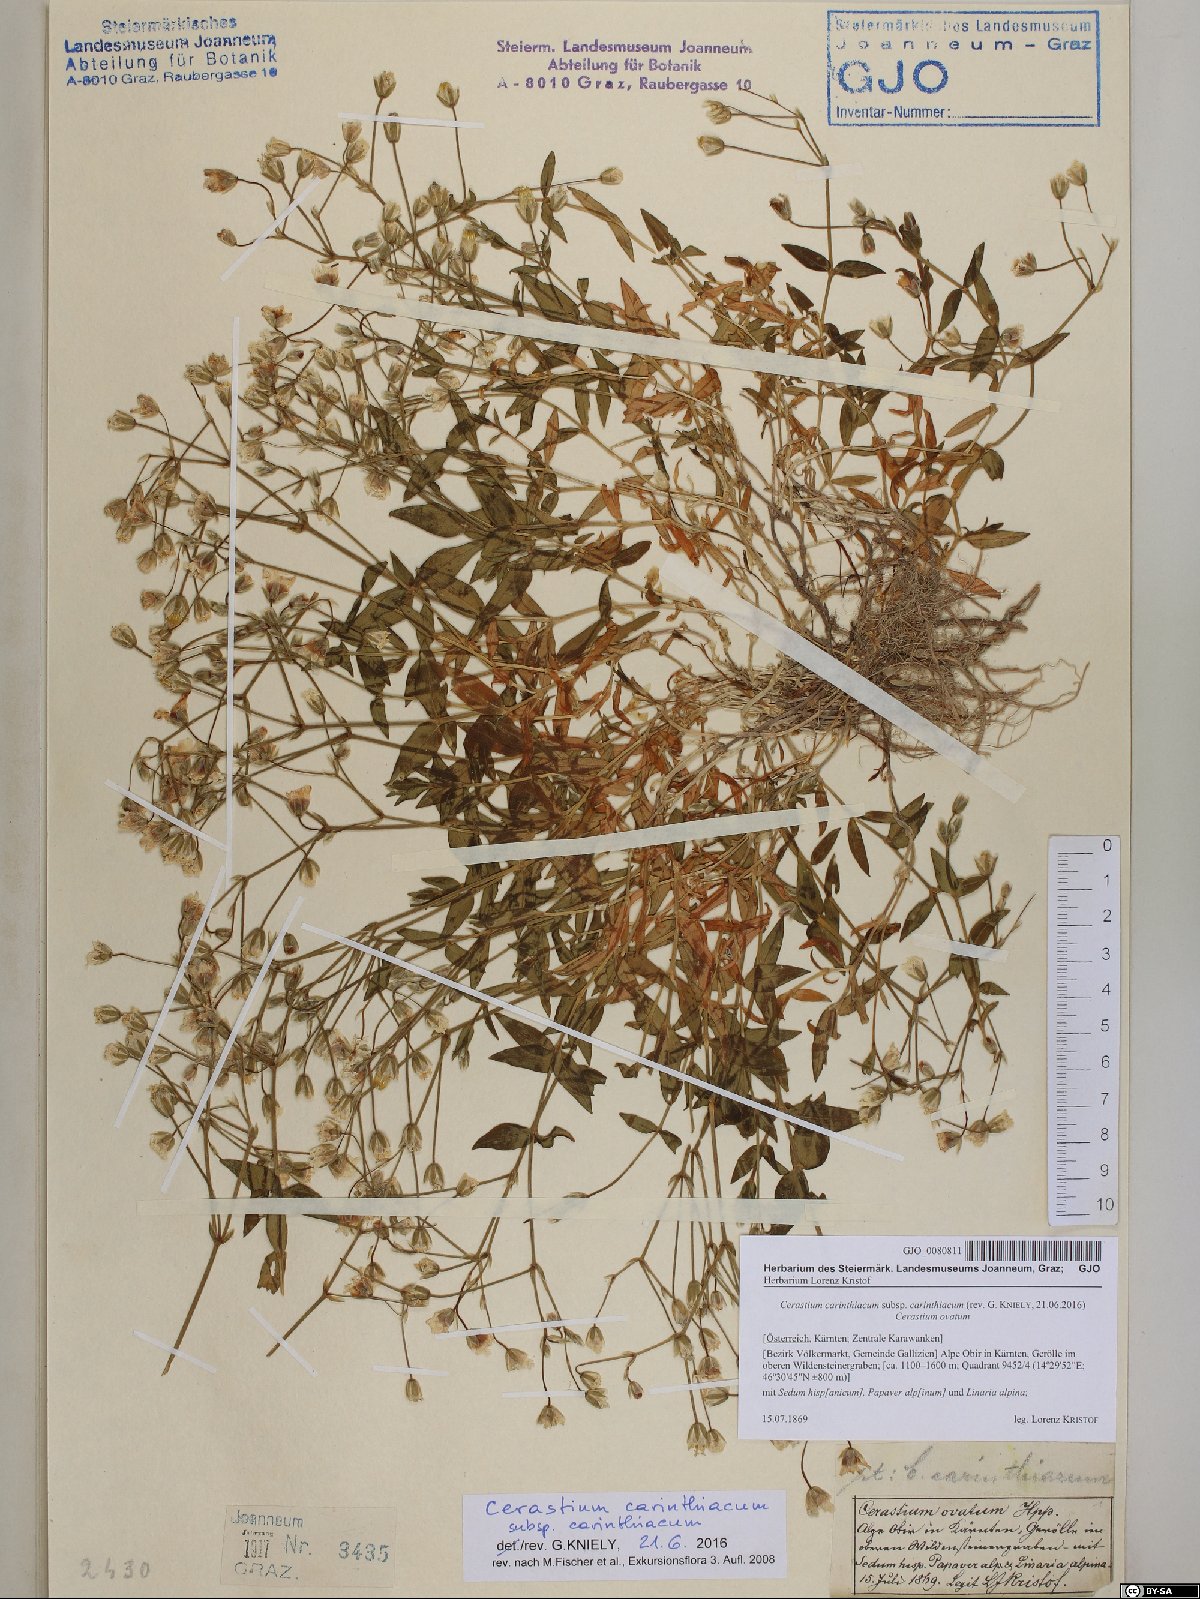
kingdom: Plantae
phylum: Tracheophyta
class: Magnoliopsida
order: Caryophyllales
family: Caryophyllaceae
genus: Cerastium
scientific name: Cerastium carinthiacum
